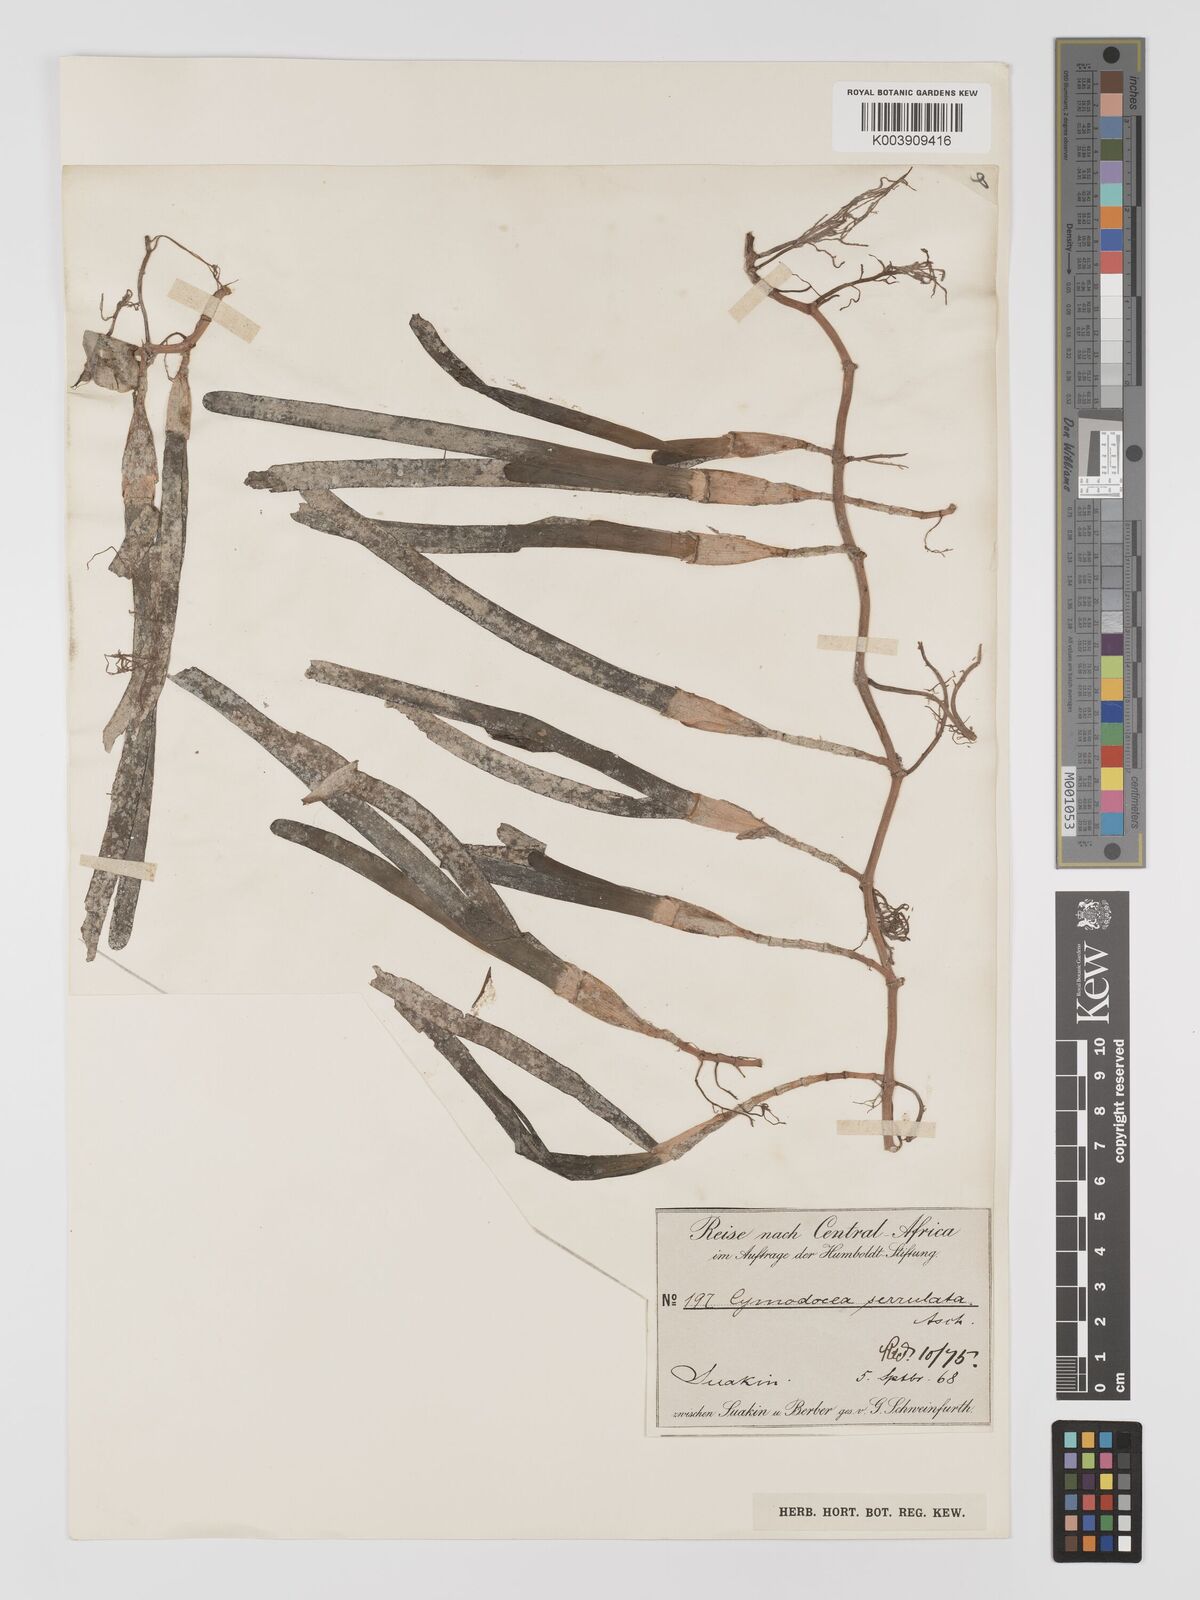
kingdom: Plantae
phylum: Tracheophyta
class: Liliopsida
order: Alismatales
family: Cymodoceaceae
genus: Oceana
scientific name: Oceana serrulata
